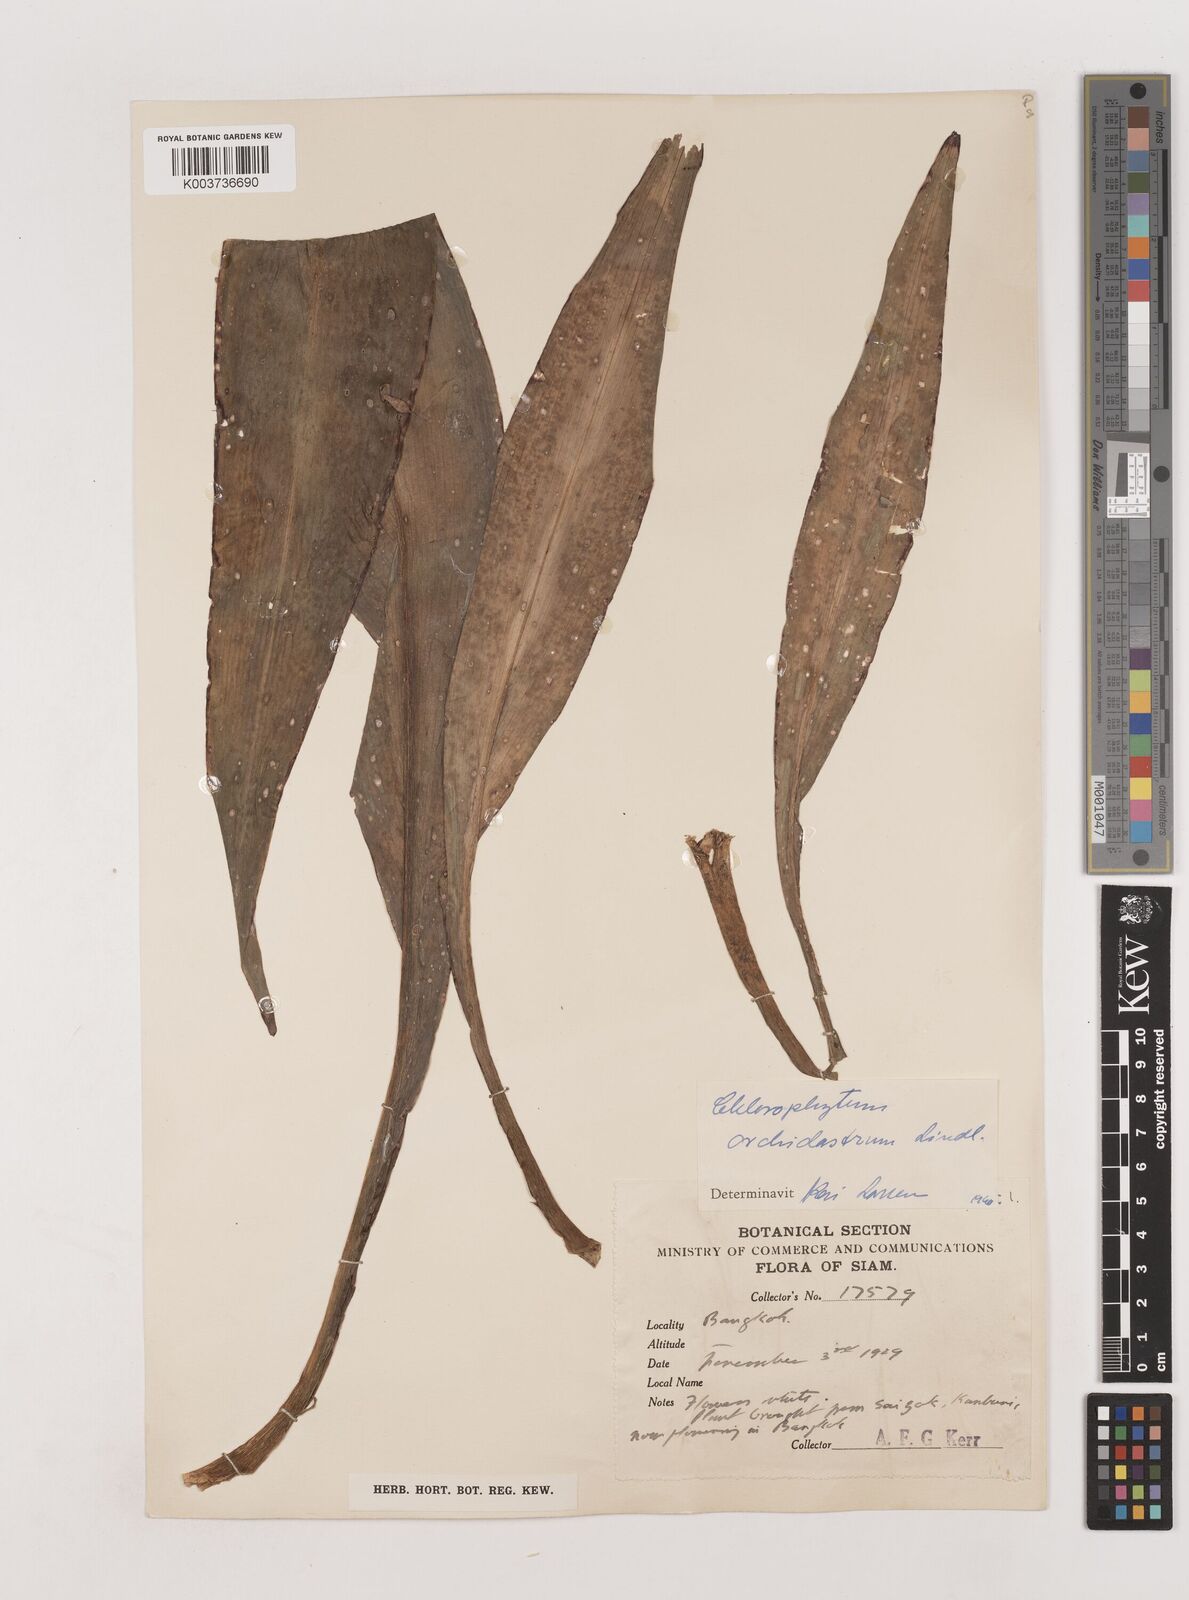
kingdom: Plantae
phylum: Tracheophyta
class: Liliopsida
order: Asparagales
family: Asparagaceae
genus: Chlorophytum
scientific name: Chlorophytum
